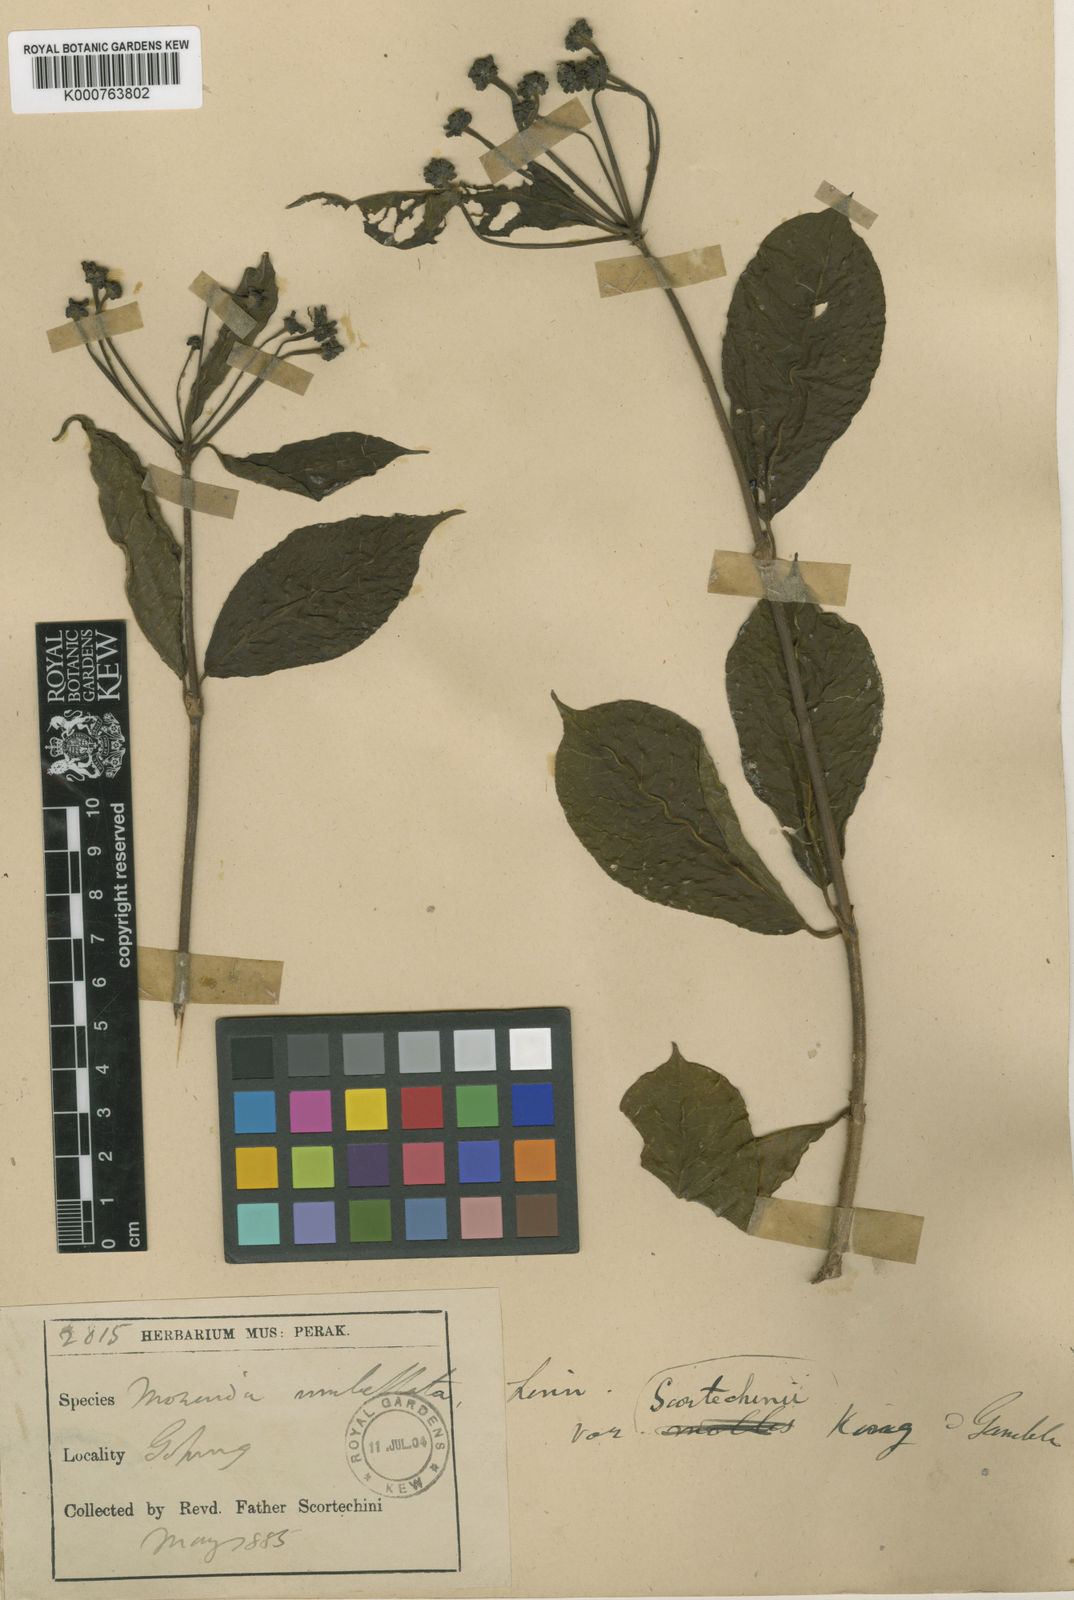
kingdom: Plantae
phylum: Tracheophyta
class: Magnoliopsida
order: Gentianales
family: Rubiaceae
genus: Gynochthodes
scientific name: Gynochthodes umbellata
